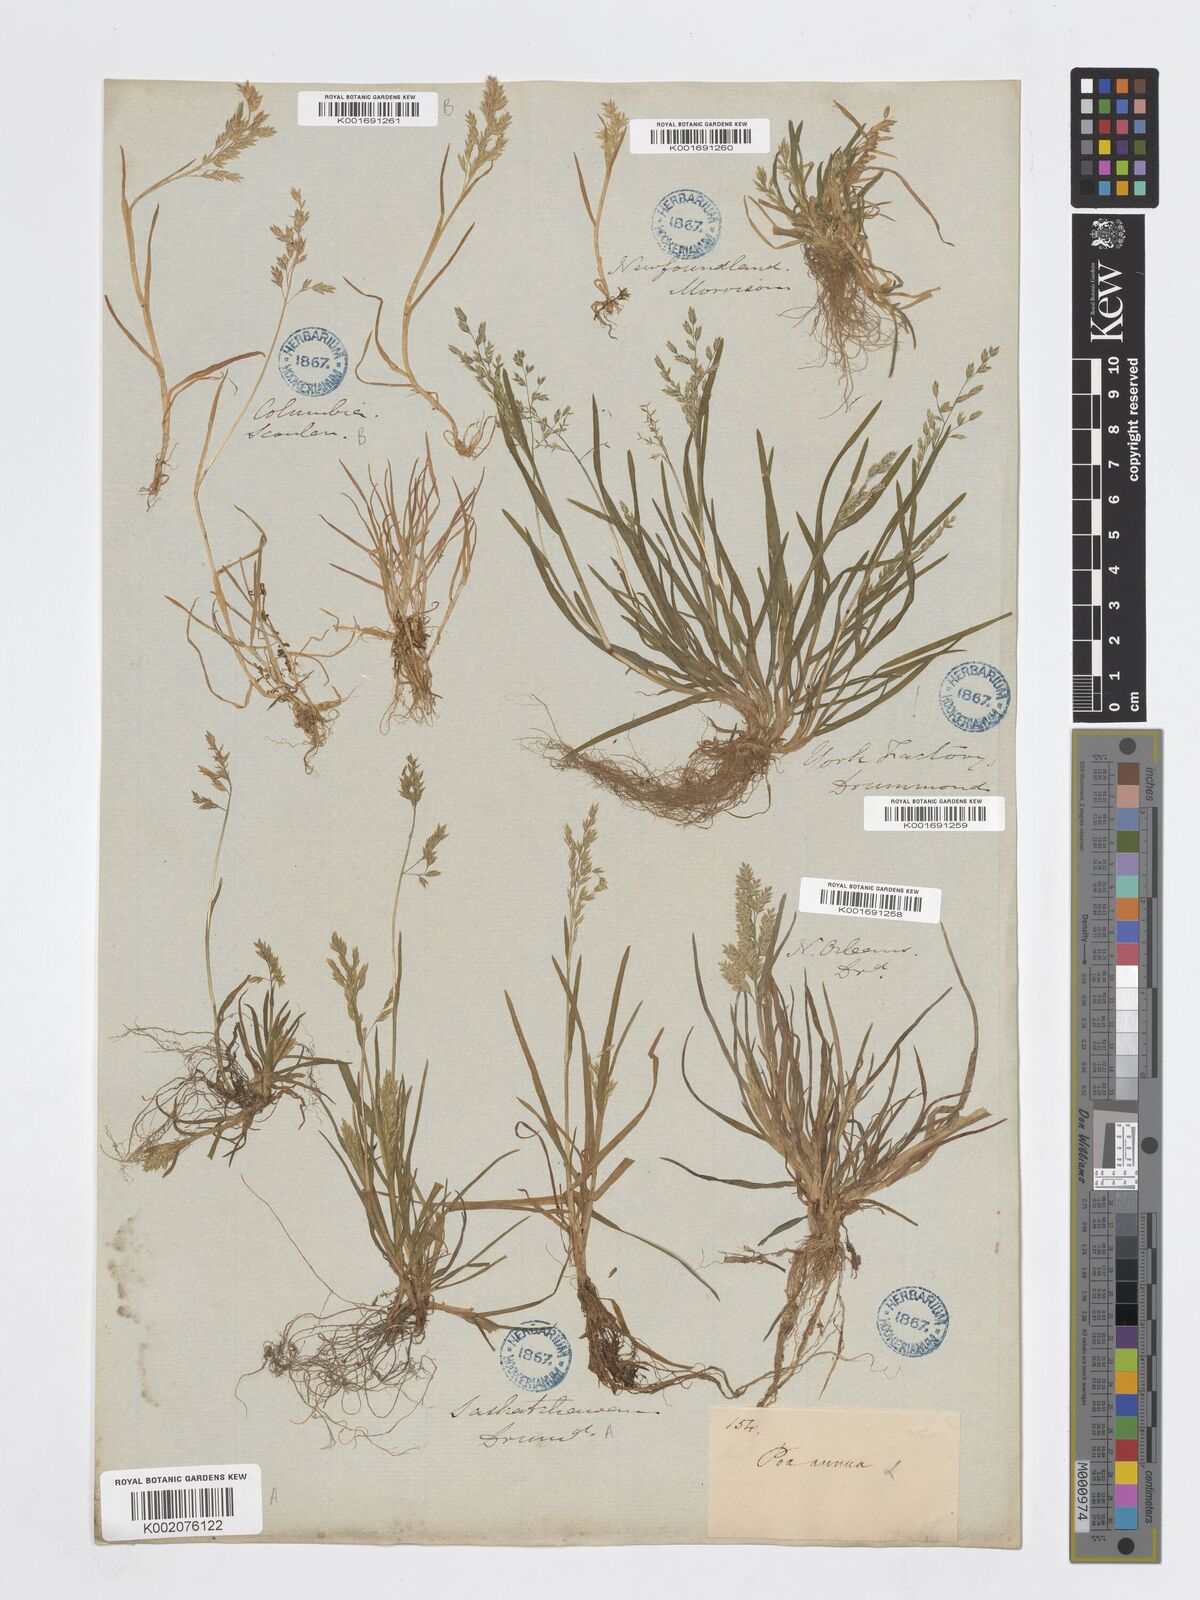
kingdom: Plantae
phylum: Tracheophyta
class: Liliopsida
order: Poales
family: Poaceae
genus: Poa
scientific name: Poa annua
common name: Annual bluegrass
